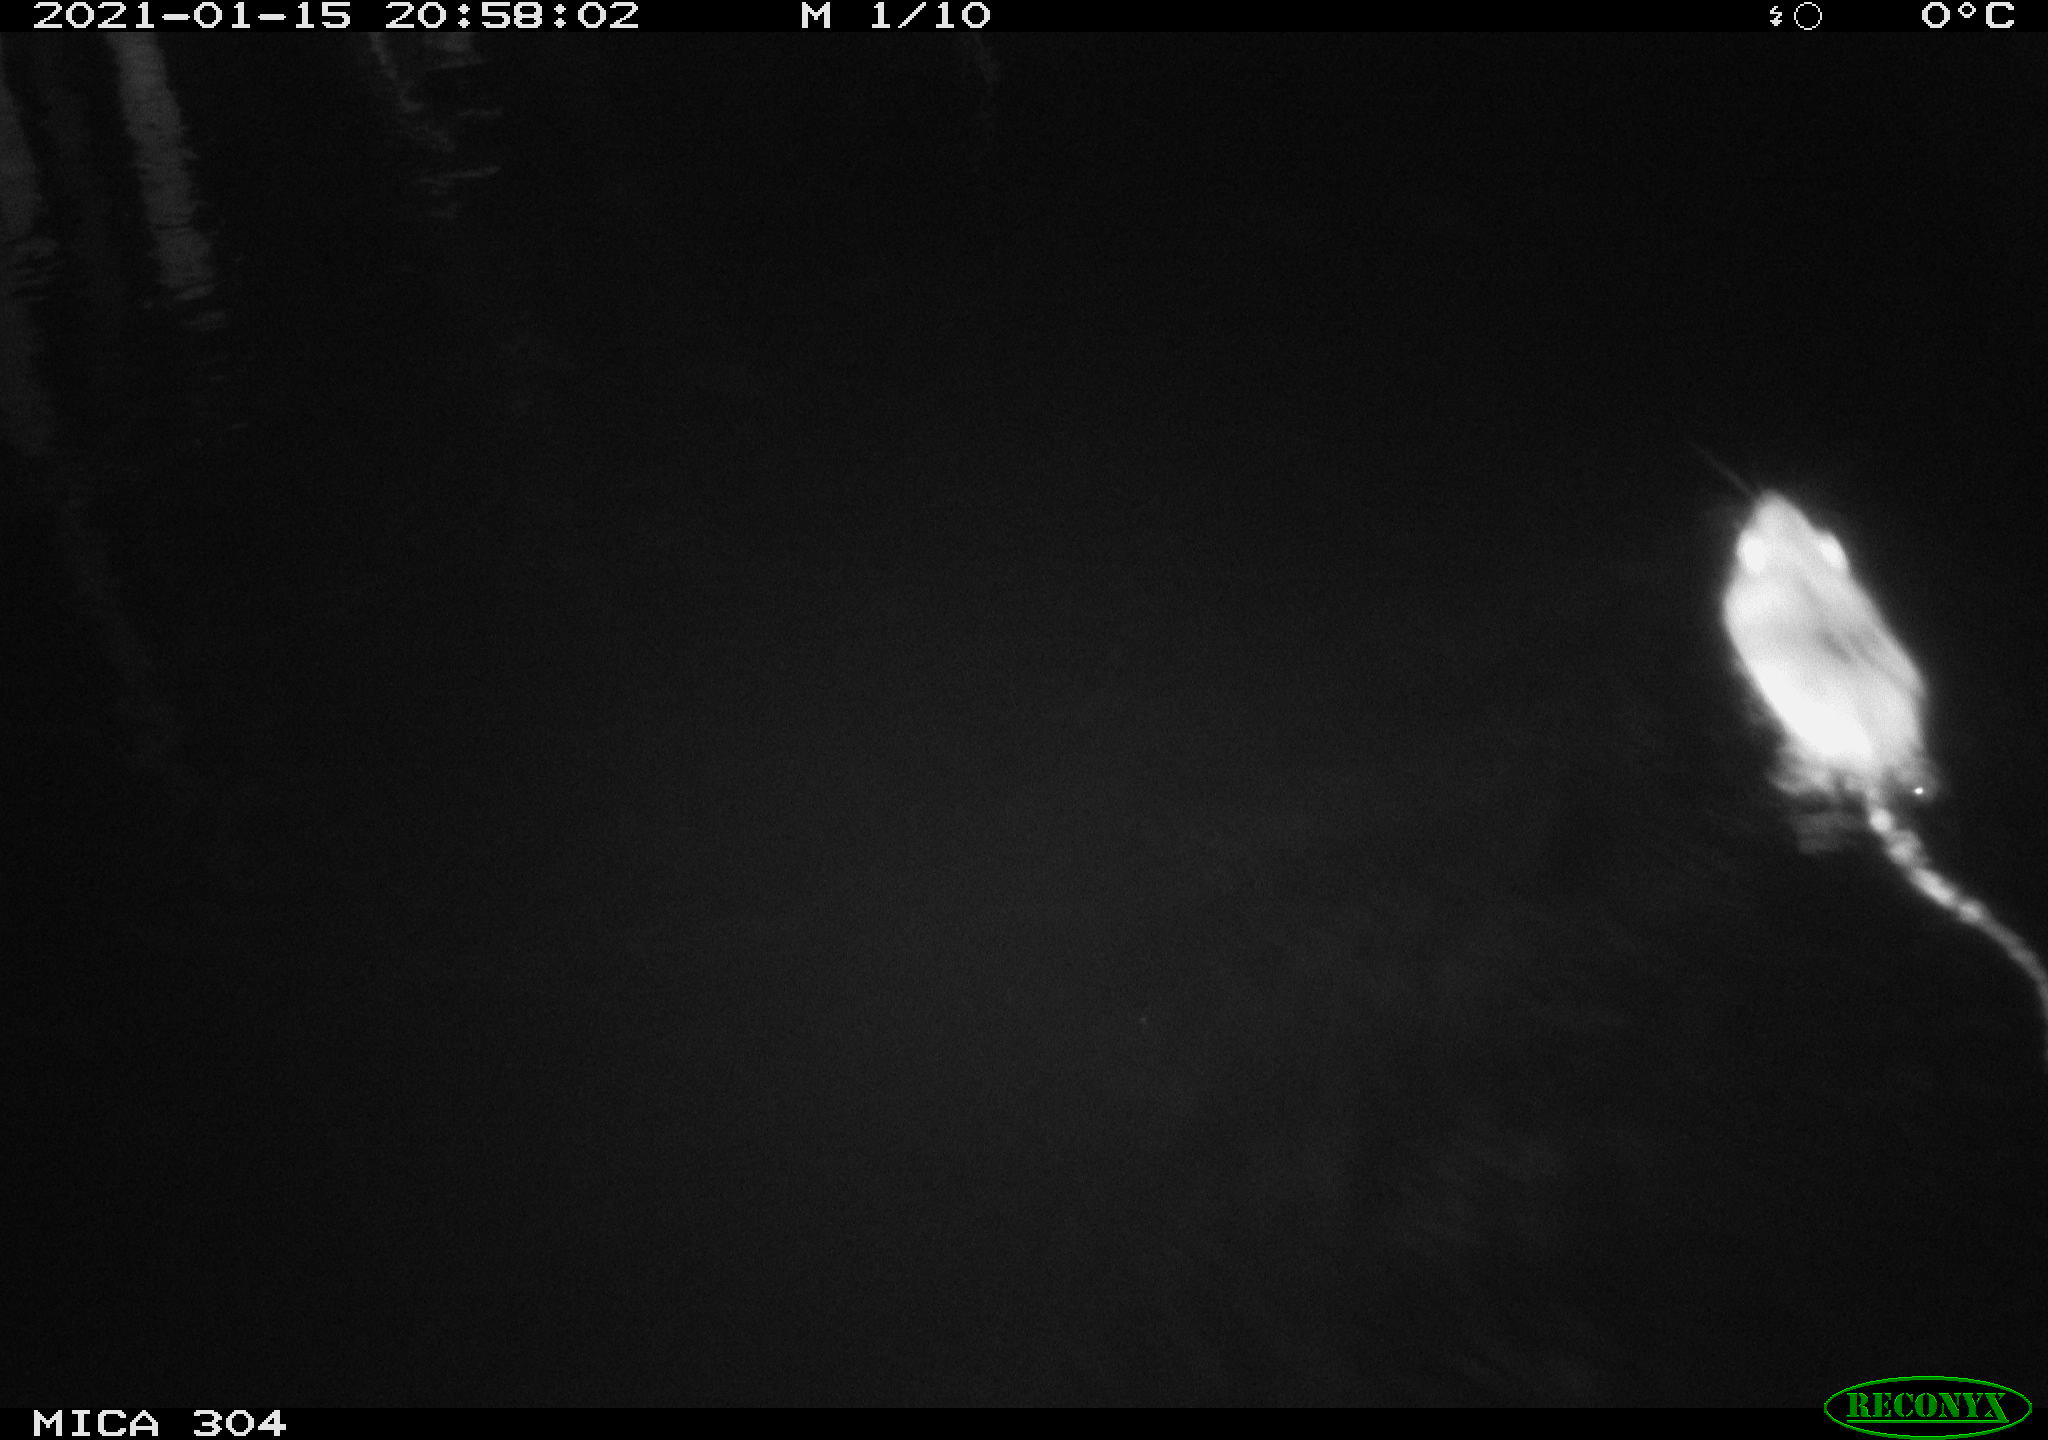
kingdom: Animalia
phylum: Chordata
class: Mammalia
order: Rodentia
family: Muridae
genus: Rattus
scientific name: Rattus norvegicus
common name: Brown rat
